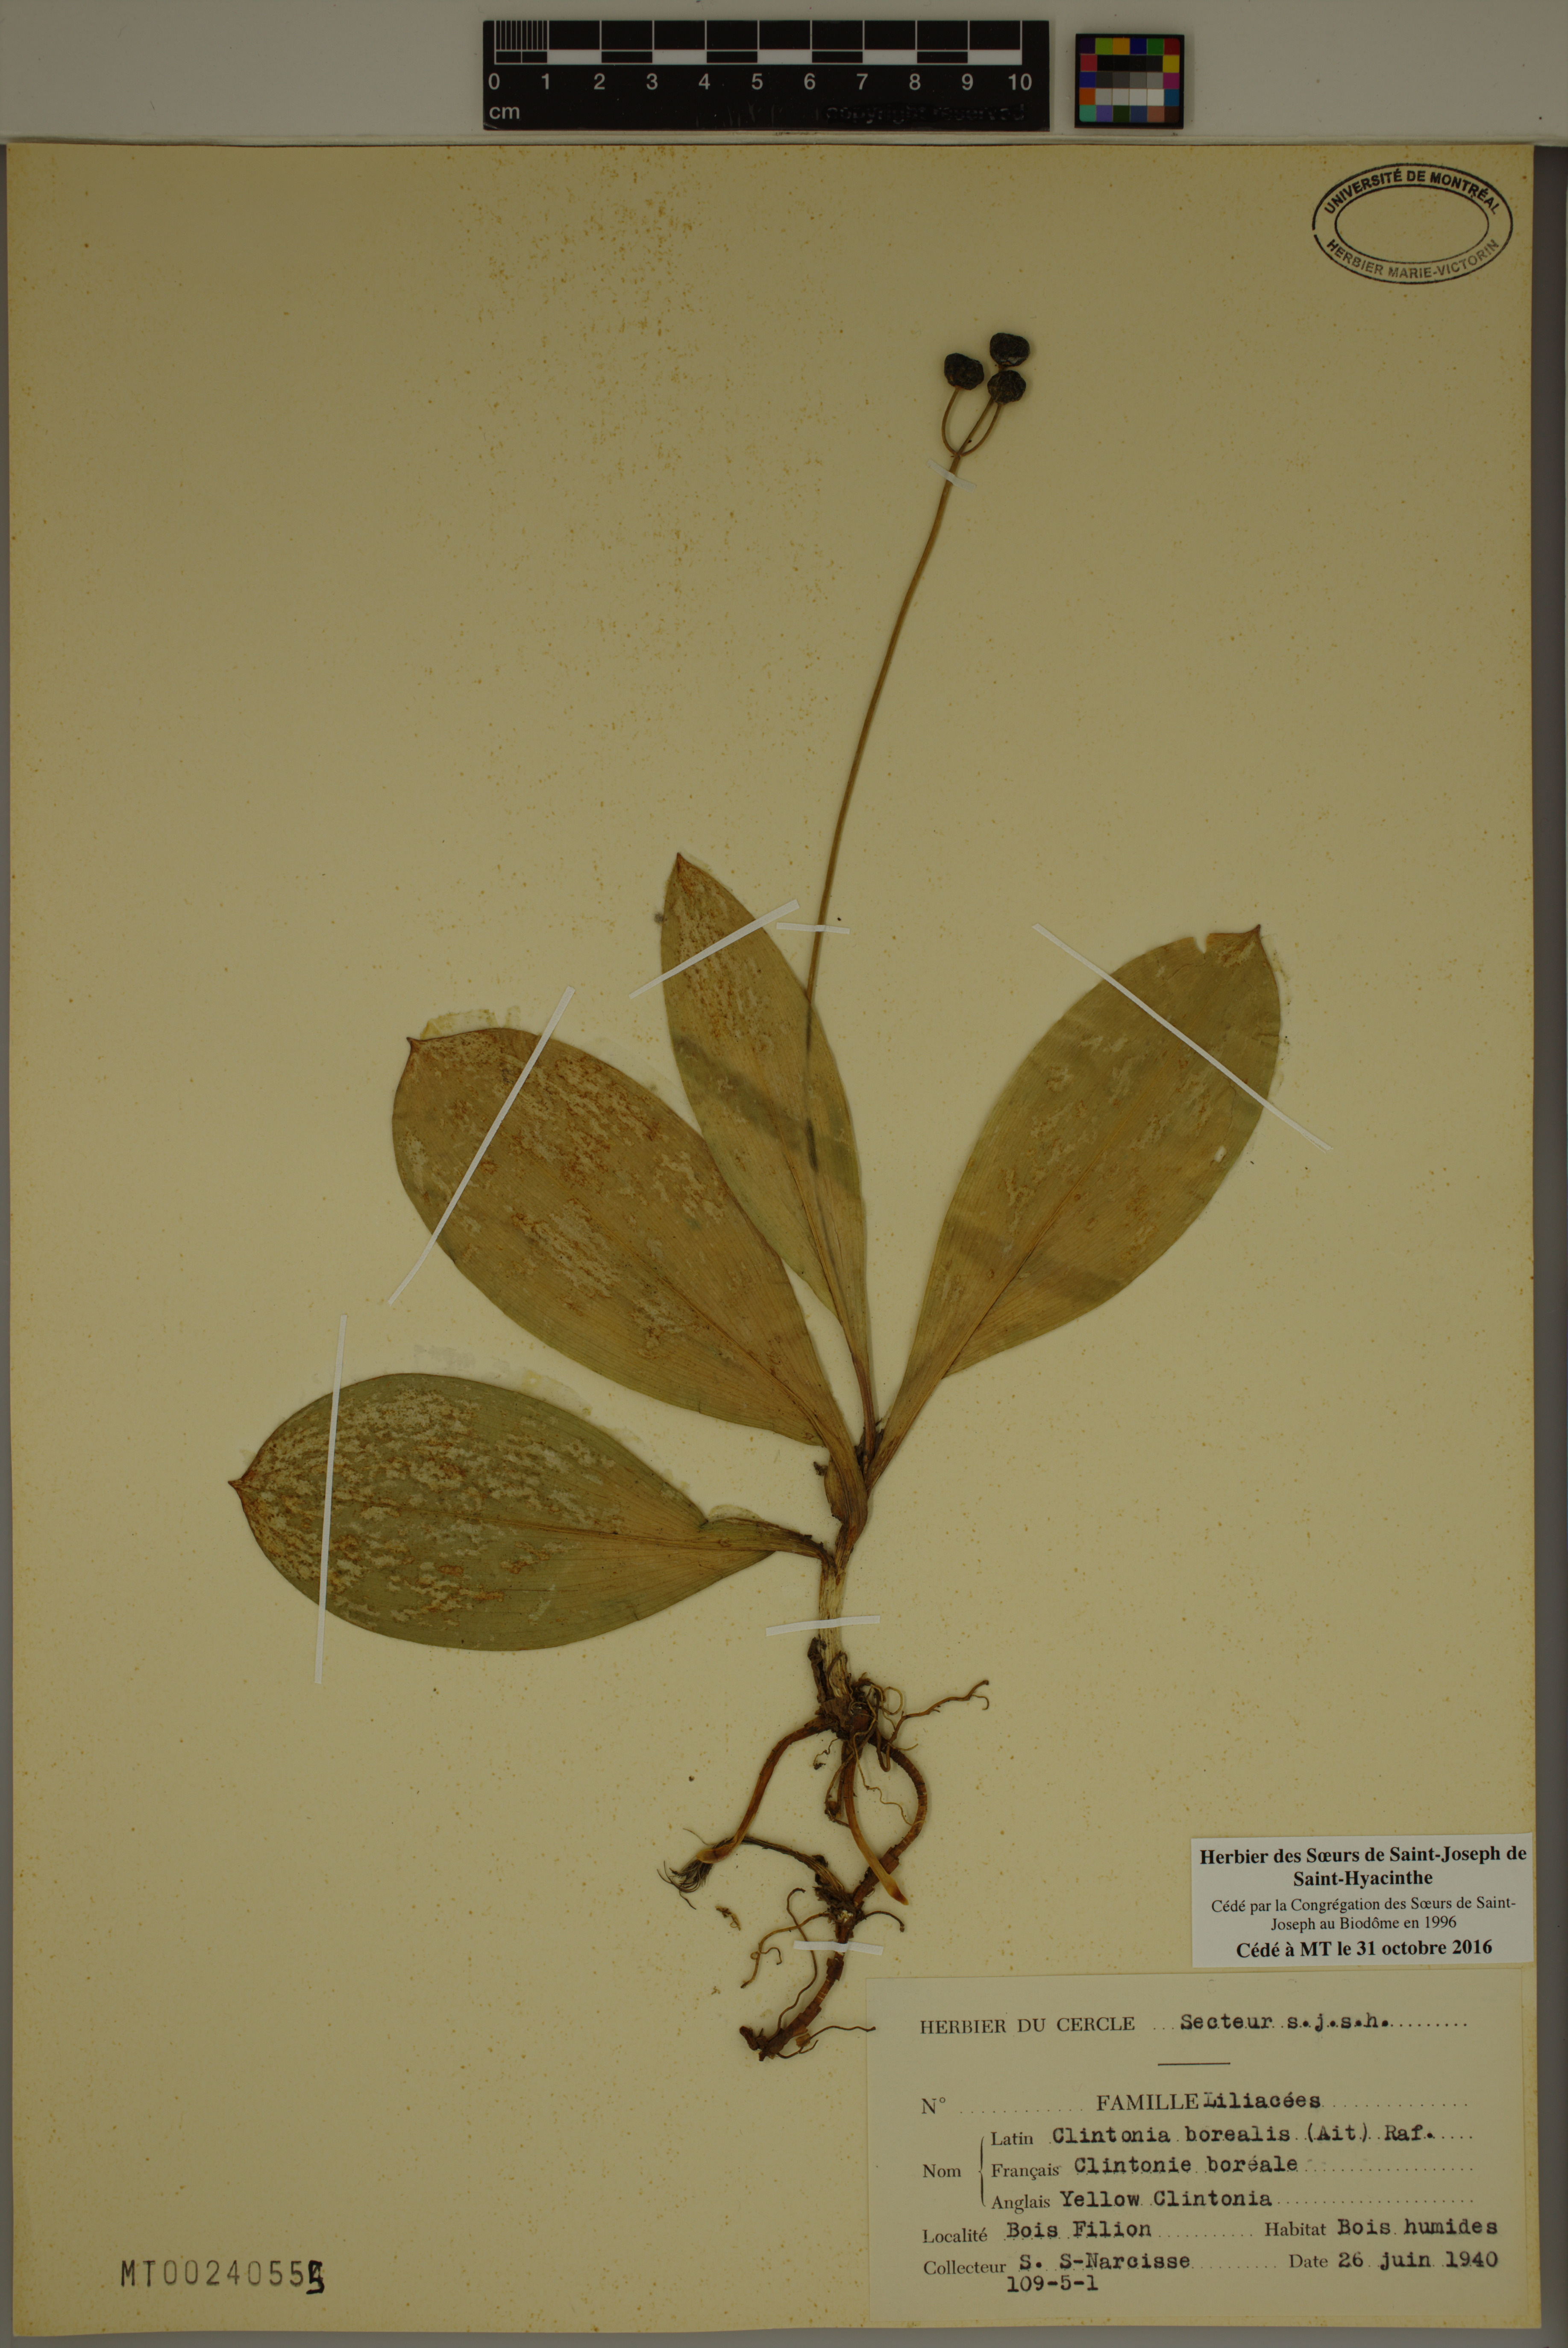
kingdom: Plantae
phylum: Tracheophyta
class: Liliopsida
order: Liliales
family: Liliaceae
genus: Clintonia
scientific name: Clintonia borealis
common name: Yellow clintonia
